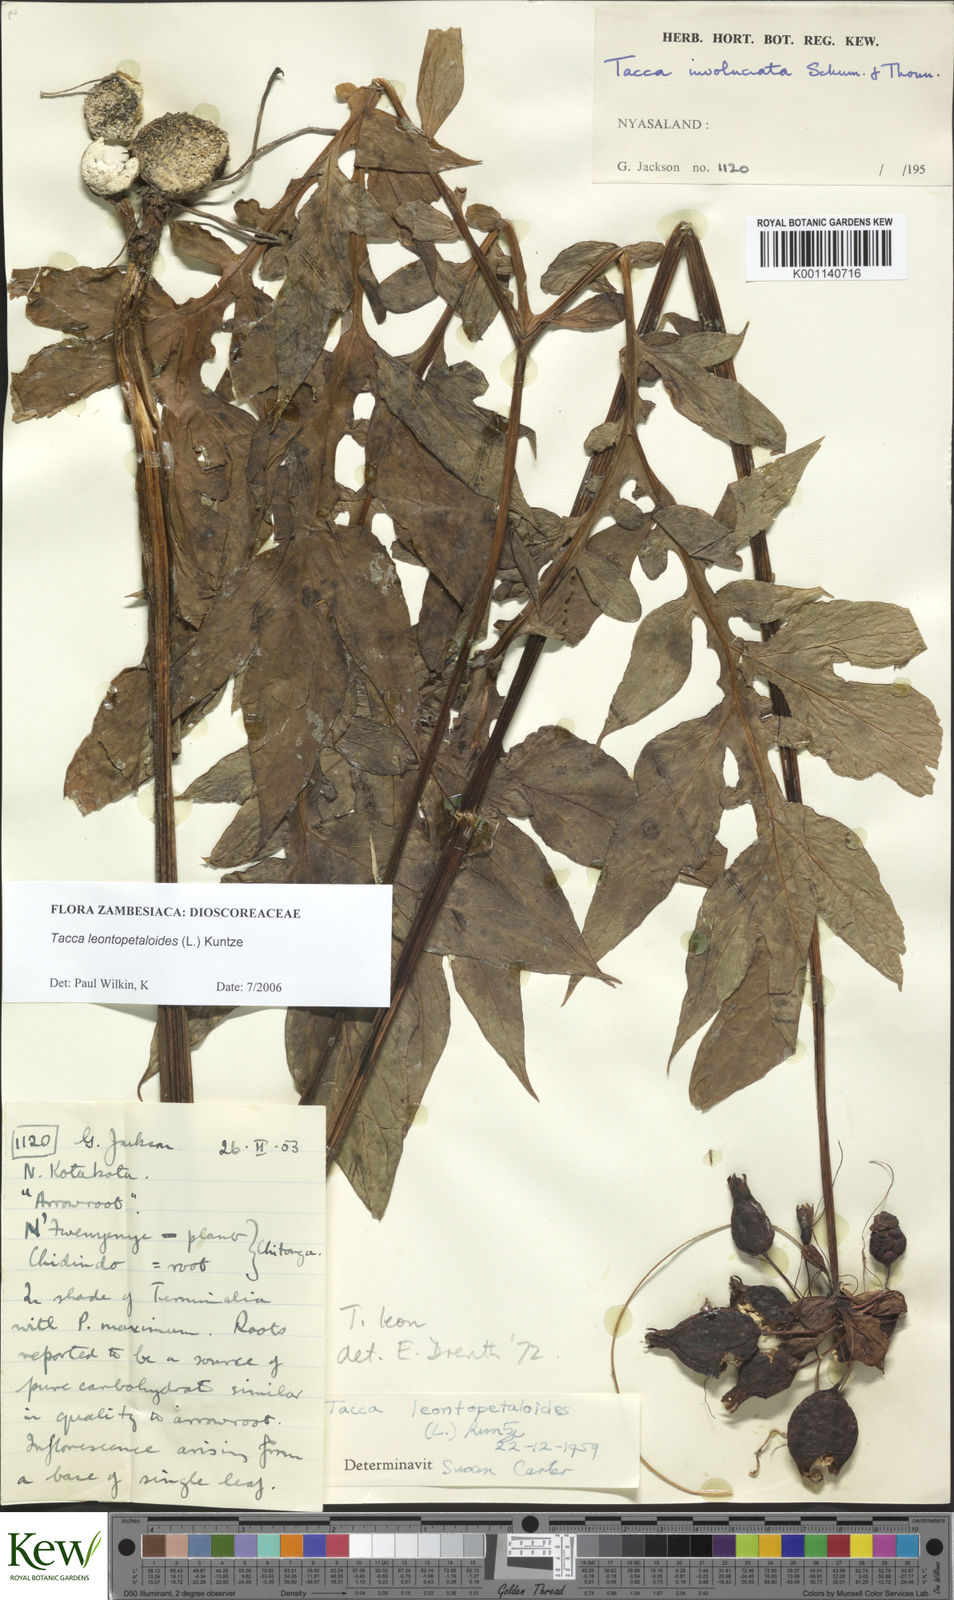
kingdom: Plantae
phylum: Tracheophyta
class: Liliopsida
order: Dioscoreales
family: Dioscoreaceae
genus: Tacca
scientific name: Tacca leontopetaloides
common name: Arrowroot
